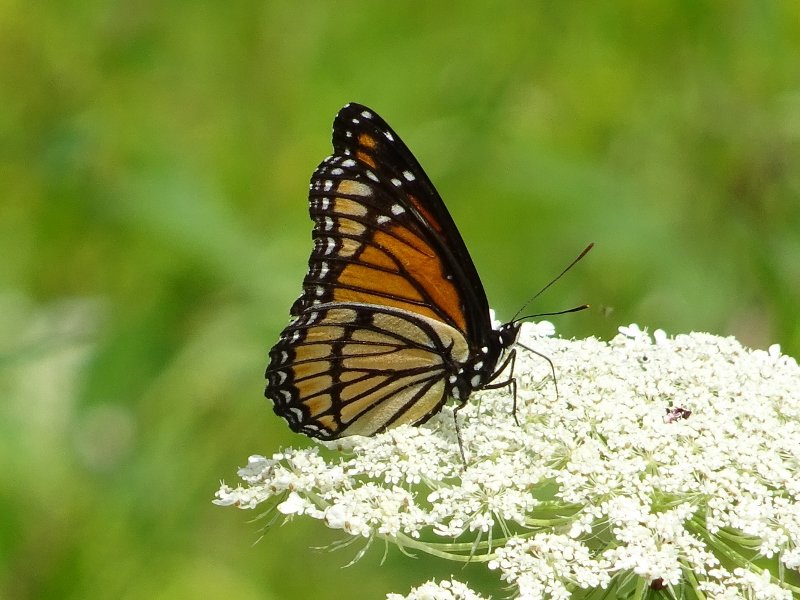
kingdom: Animalia
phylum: Arthropoda
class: Insecta
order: Lepidoptera
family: Nymphalidae
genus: Limenitis
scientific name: Limenitis archippus
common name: Viceroy
